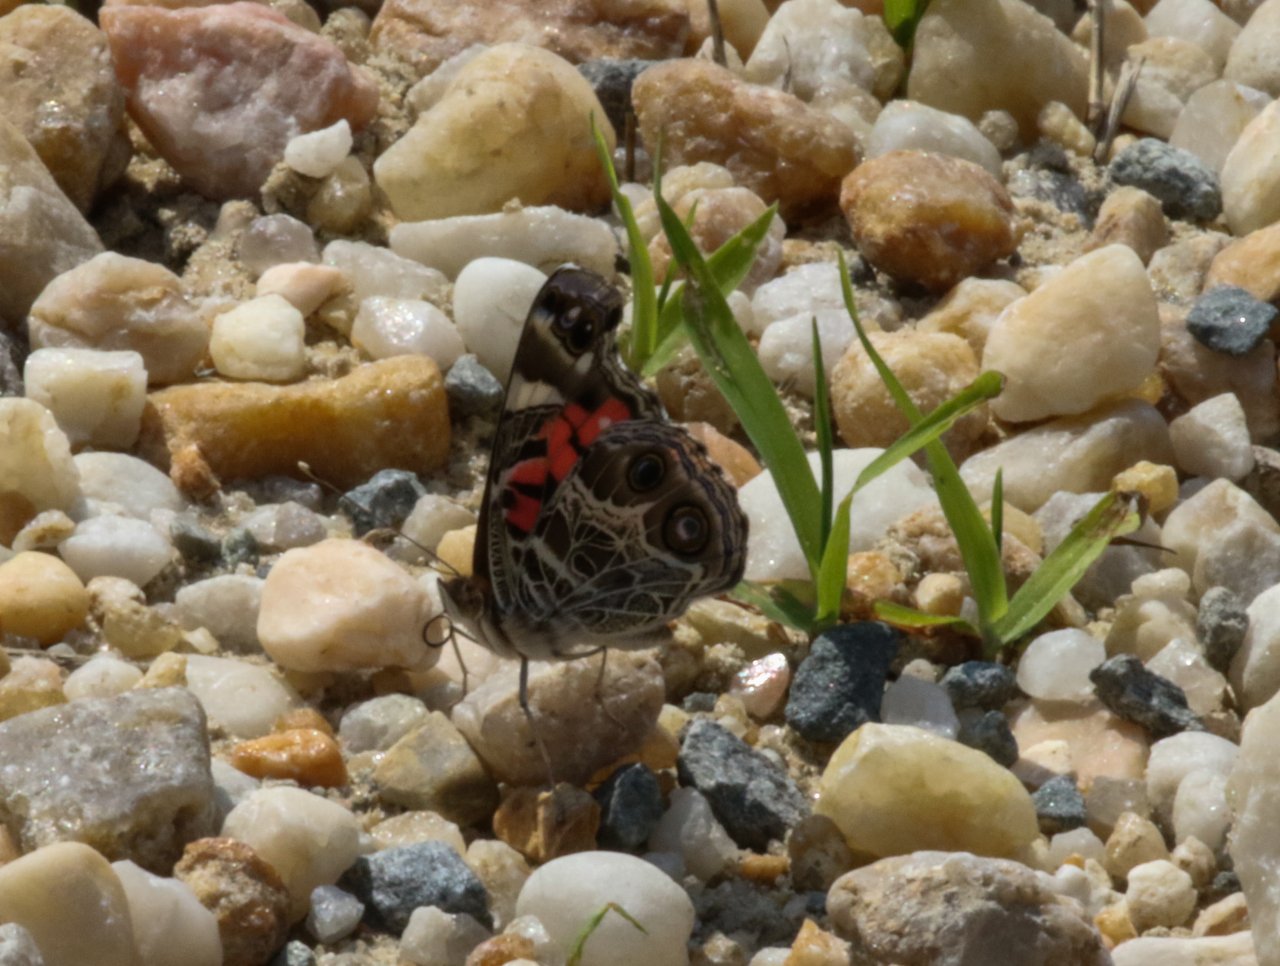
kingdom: Animalia
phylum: Arthropoda
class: Insecta
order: Lepidoptera
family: Nymphalidae
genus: Vanessa
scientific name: Vanessa virginiensis
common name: American Lady
